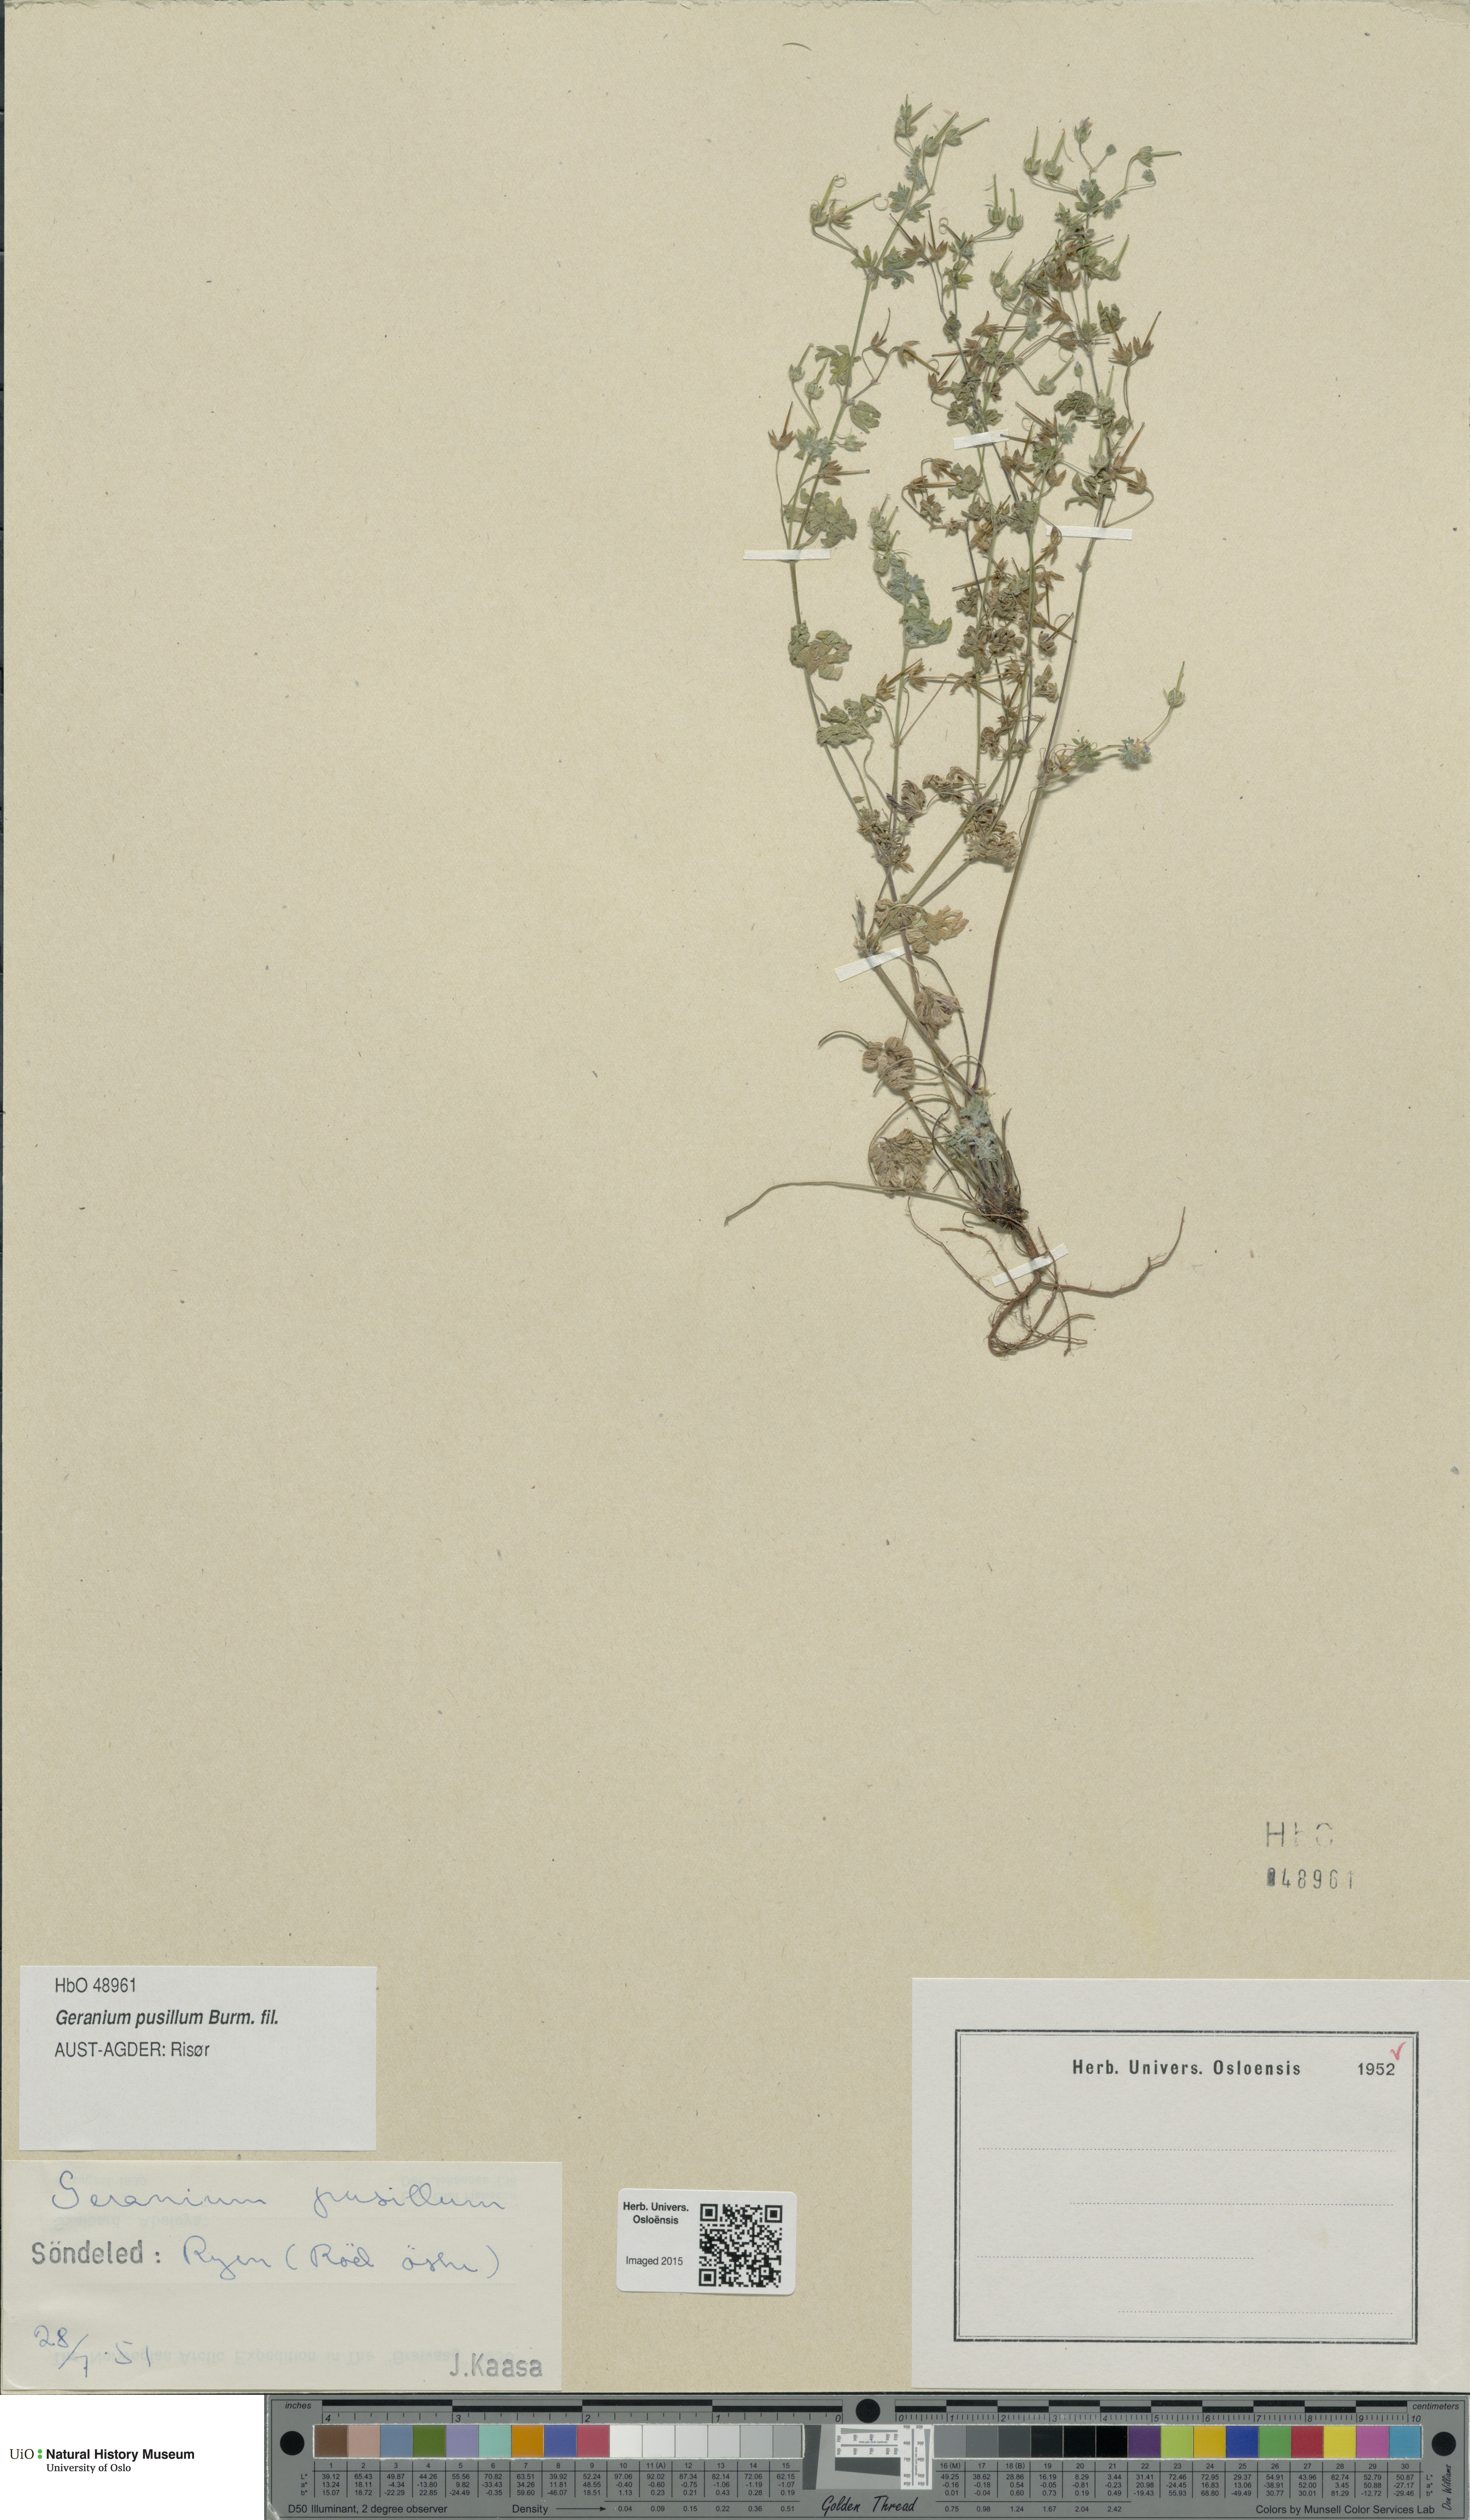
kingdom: Plantae
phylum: Tracheophyta
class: Magnoliopsida
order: Geraniales
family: Geraniaceae
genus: Geranium
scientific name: Geranium pusillum
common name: Small geranium
